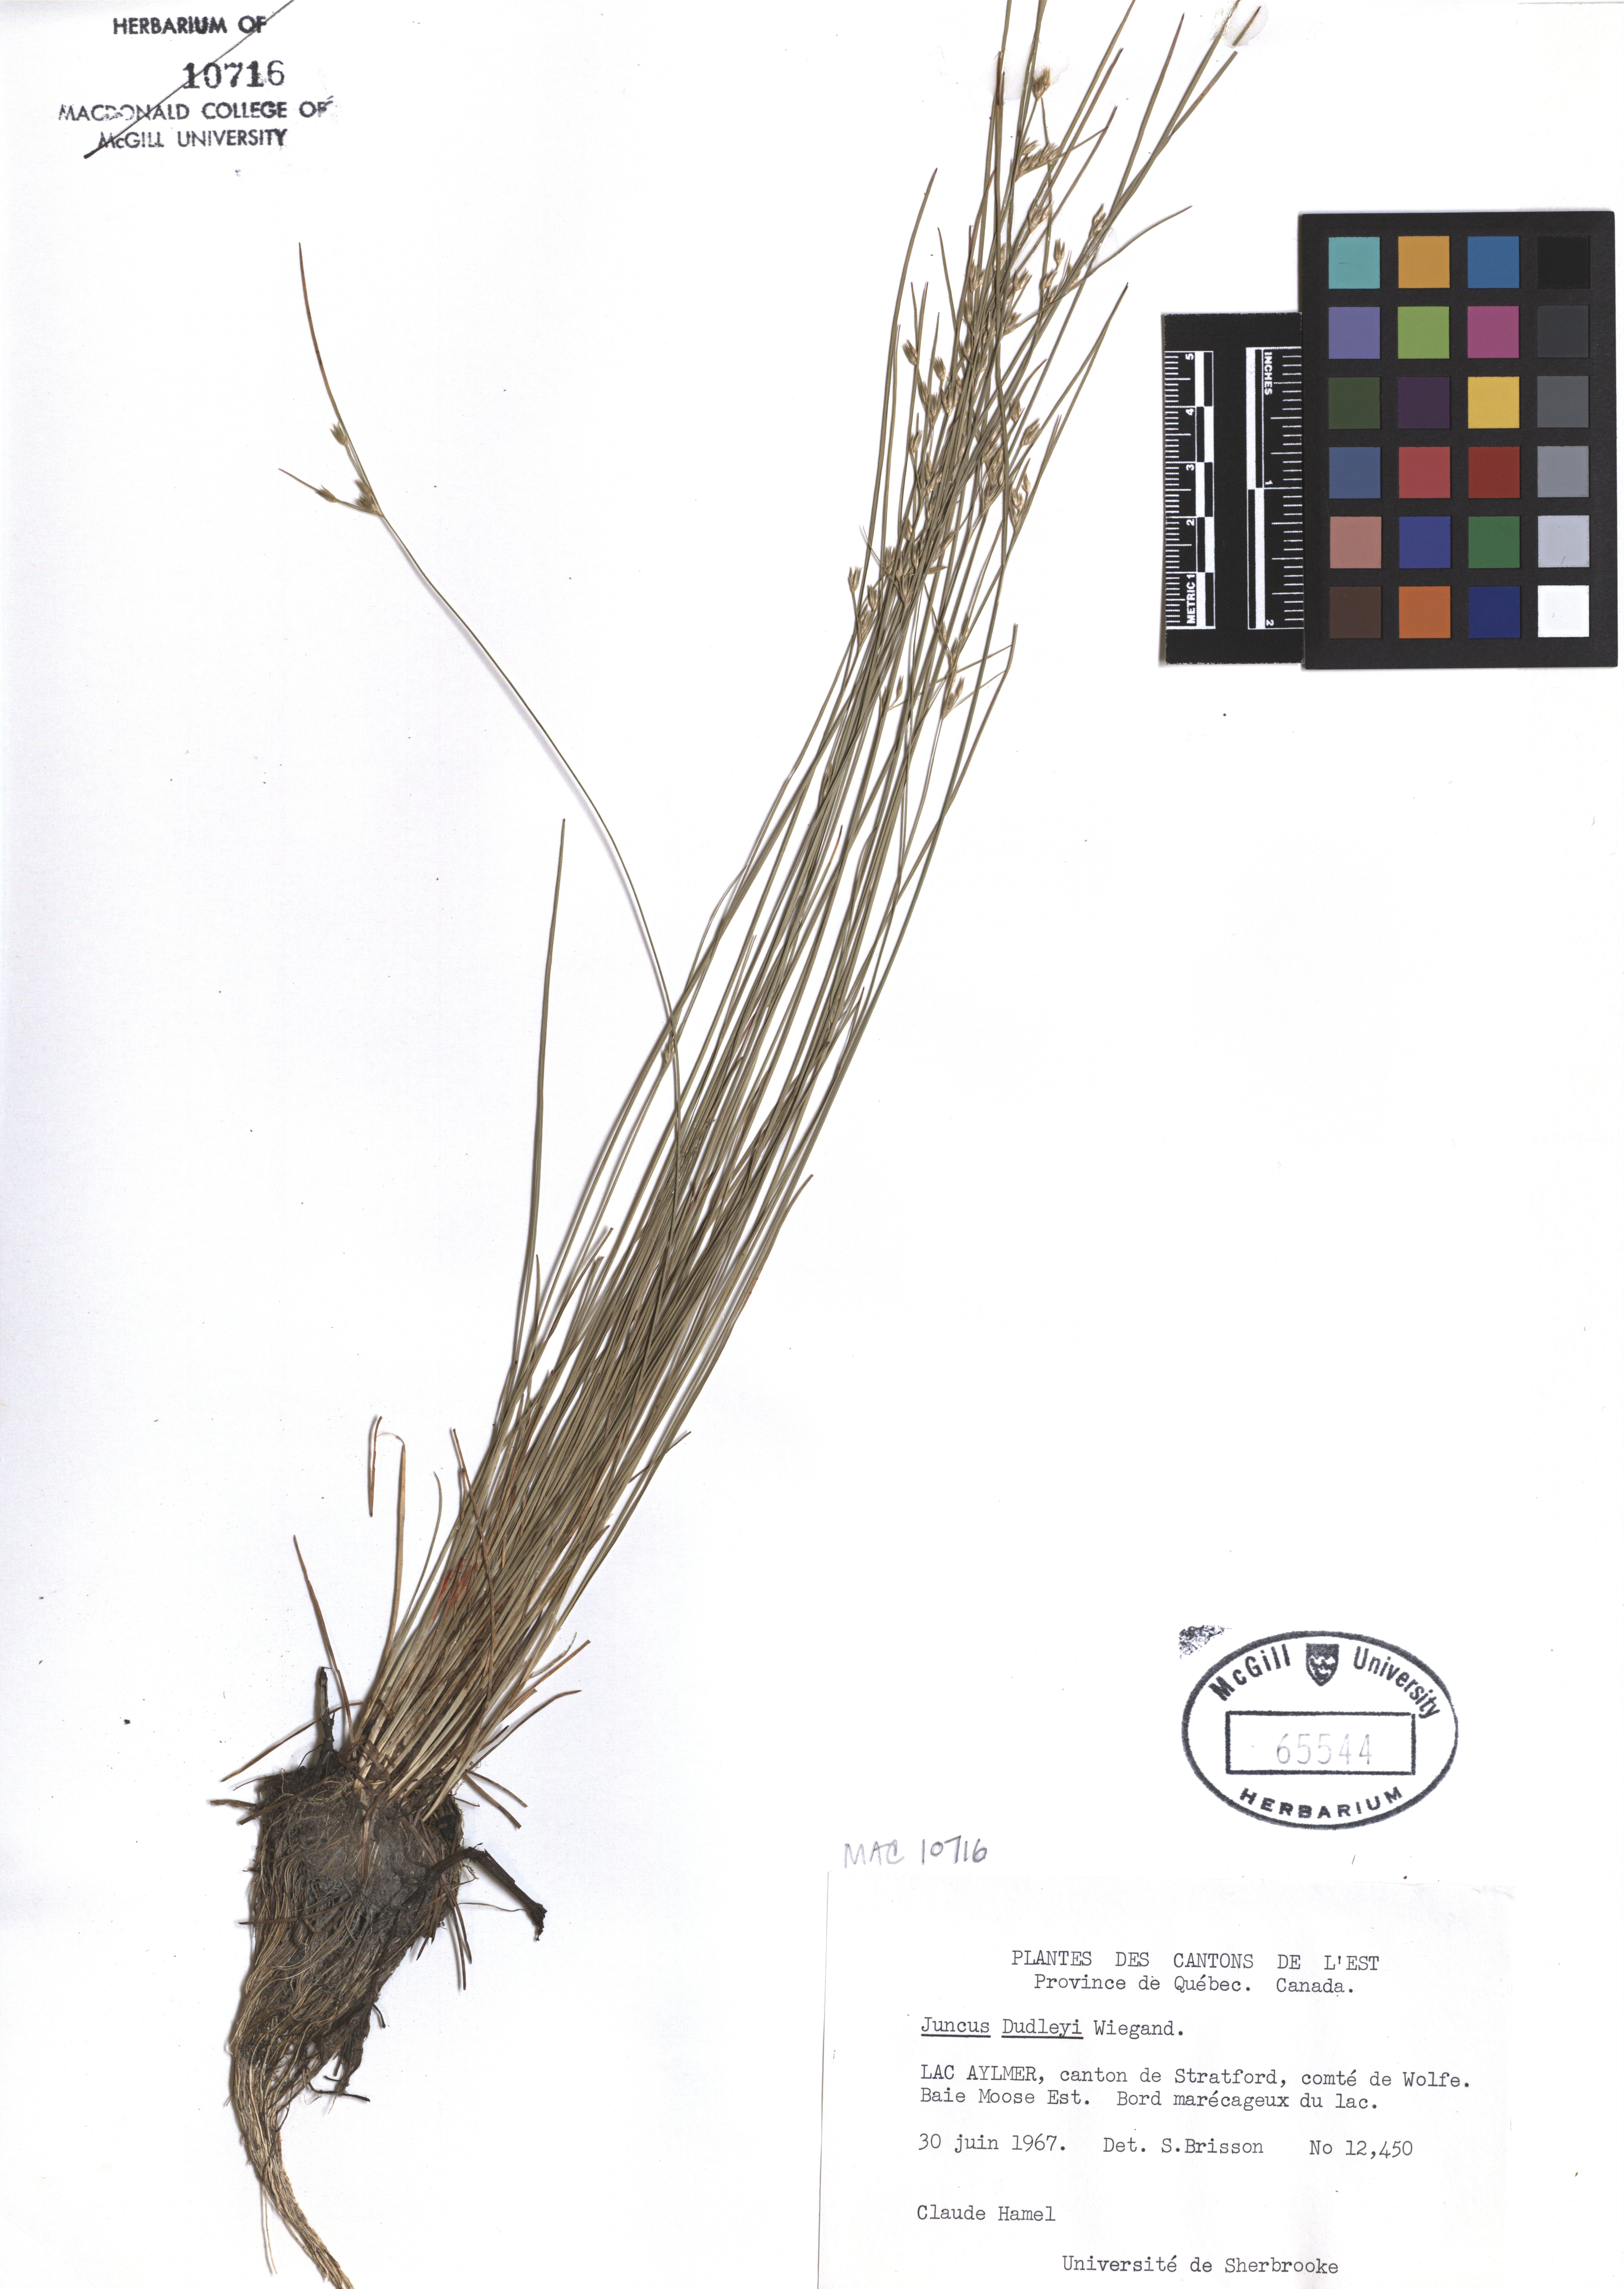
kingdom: Plantae
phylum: Tracheophyta
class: Liliopsida
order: Poales
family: Juncaceae
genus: Juncus
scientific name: Juncus dudleyi
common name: Dudley's rush
